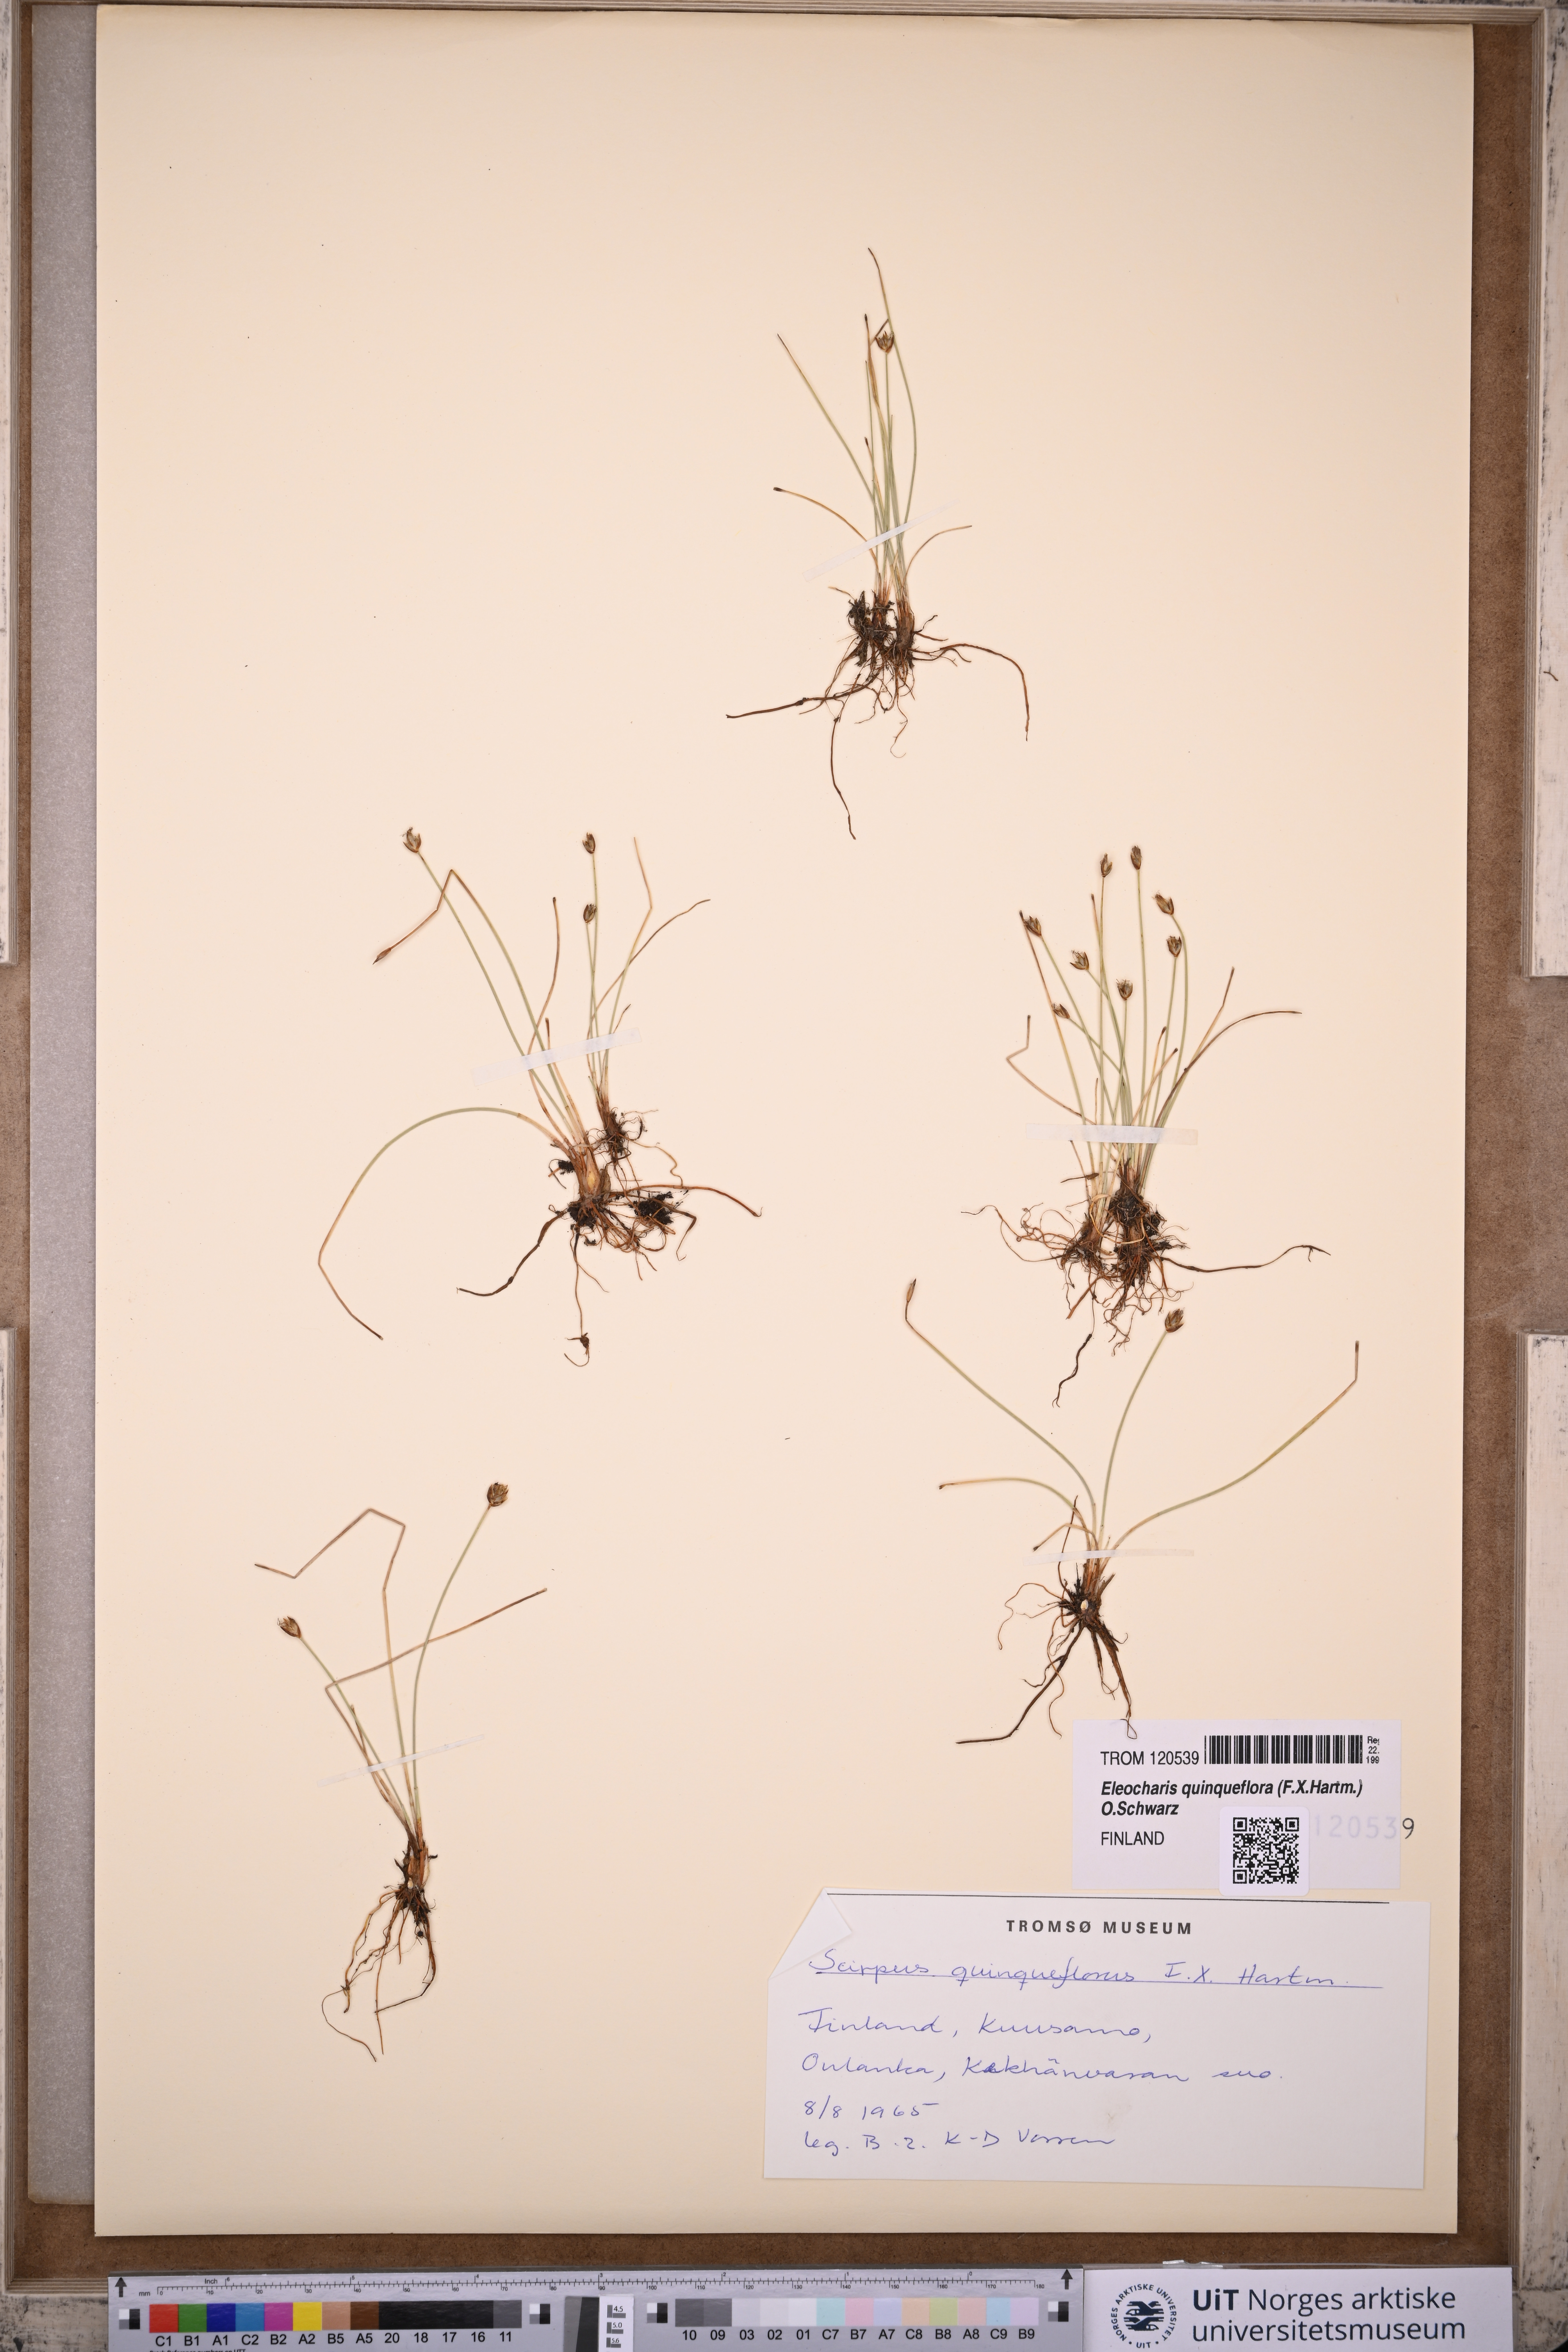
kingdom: Plantae
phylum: Tracheophyta
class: Liliopsida
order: Poales
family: Cyperaceae
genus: Eleocharis
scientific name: Eleocharis quinqueflora
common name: Few-flowered spike-rush
